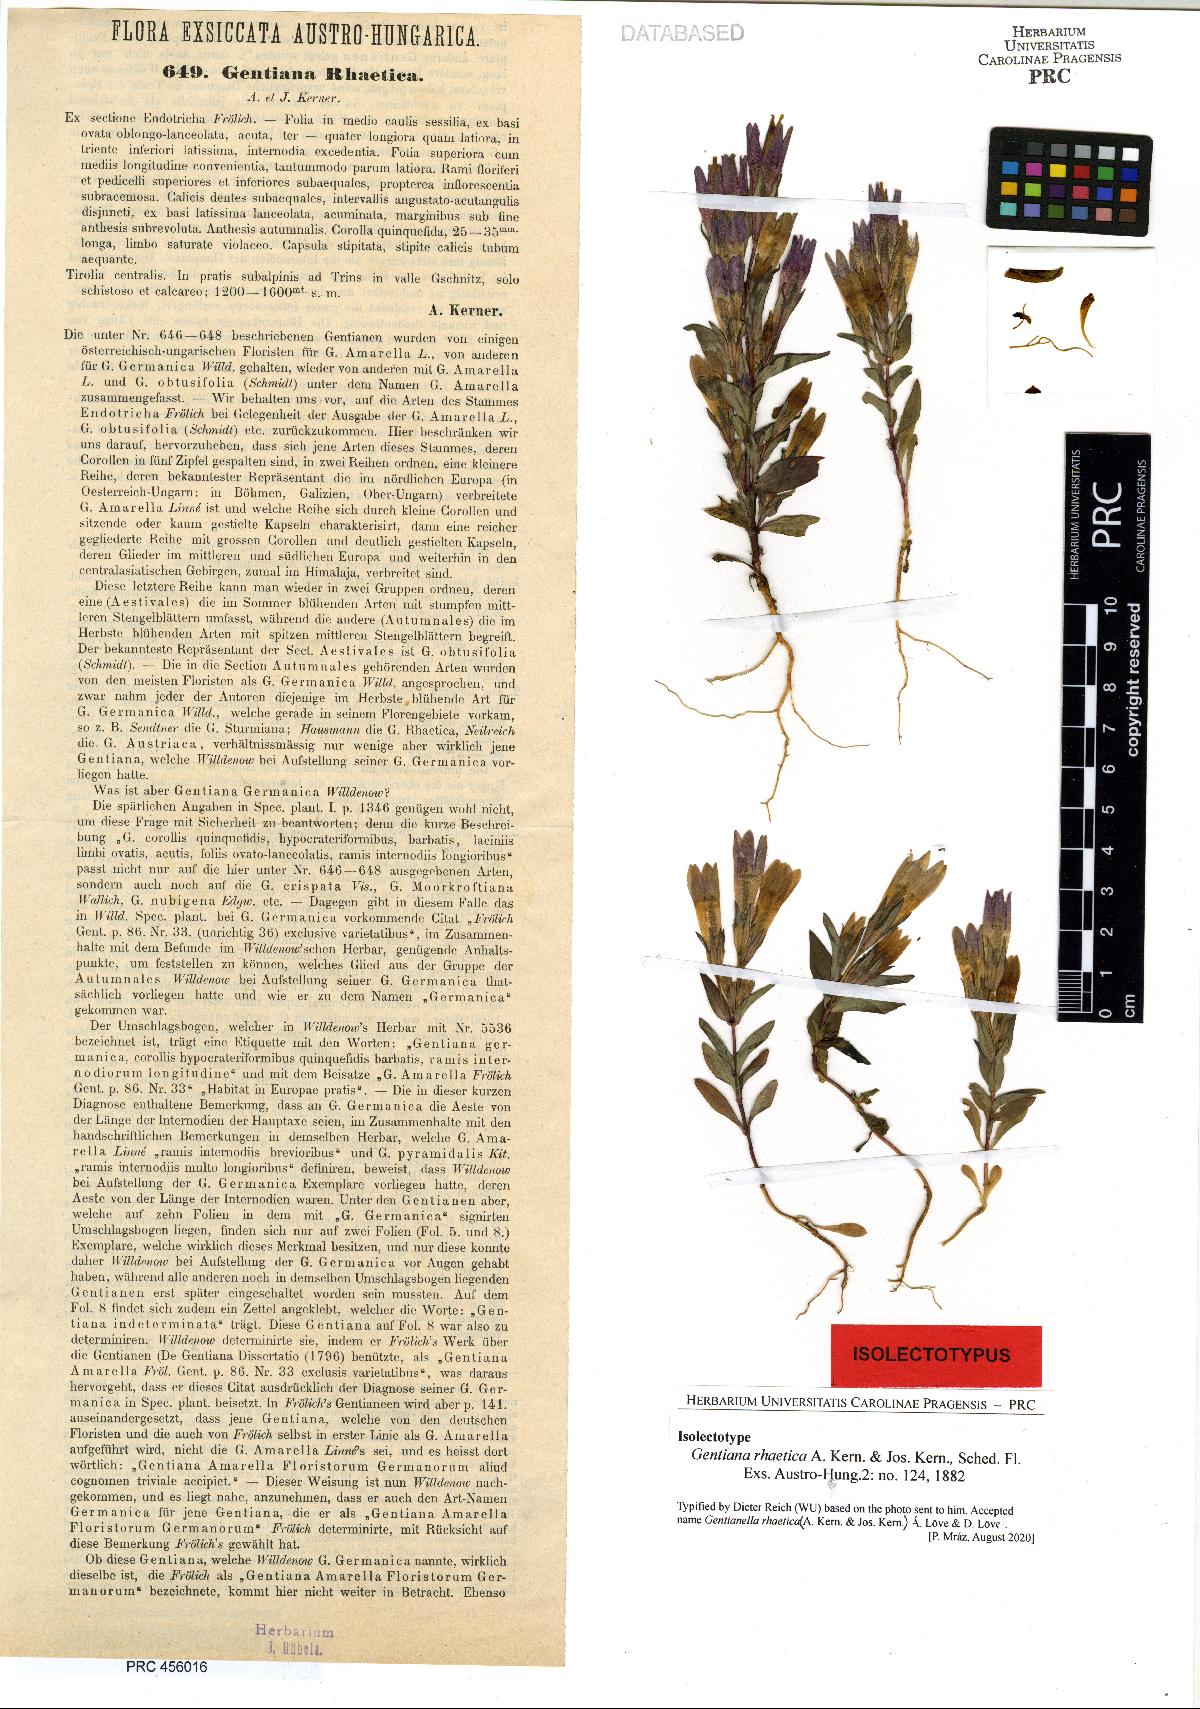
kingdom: Plantae
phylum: Tracheophyta
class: Magnoliopsida
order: Gentianales
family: Gentianaceae
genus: Gentianella
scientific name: Gentianella rhaetica
